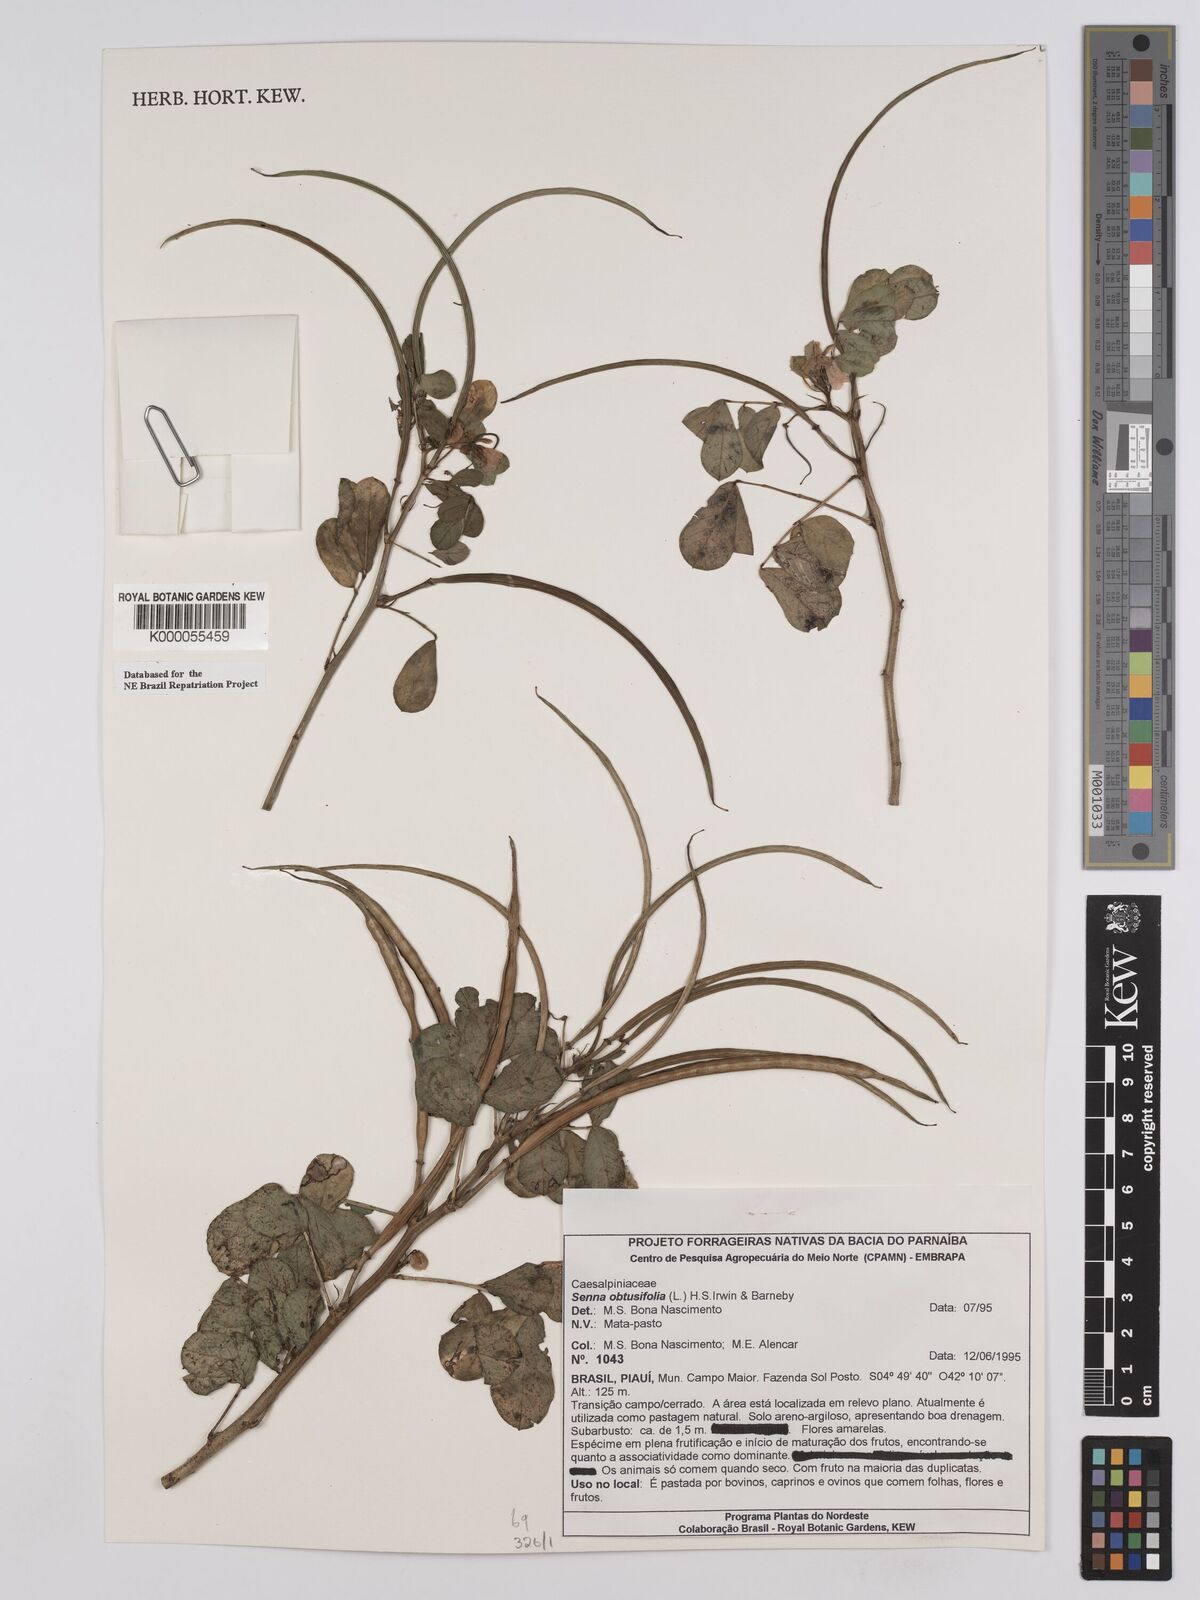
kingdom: Plantae
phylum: Tracheophyta
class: Magnoliopsida
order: Fabales
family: Fabaceae
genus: Senna
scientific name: Senna obtusifolia
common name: Java-bean
